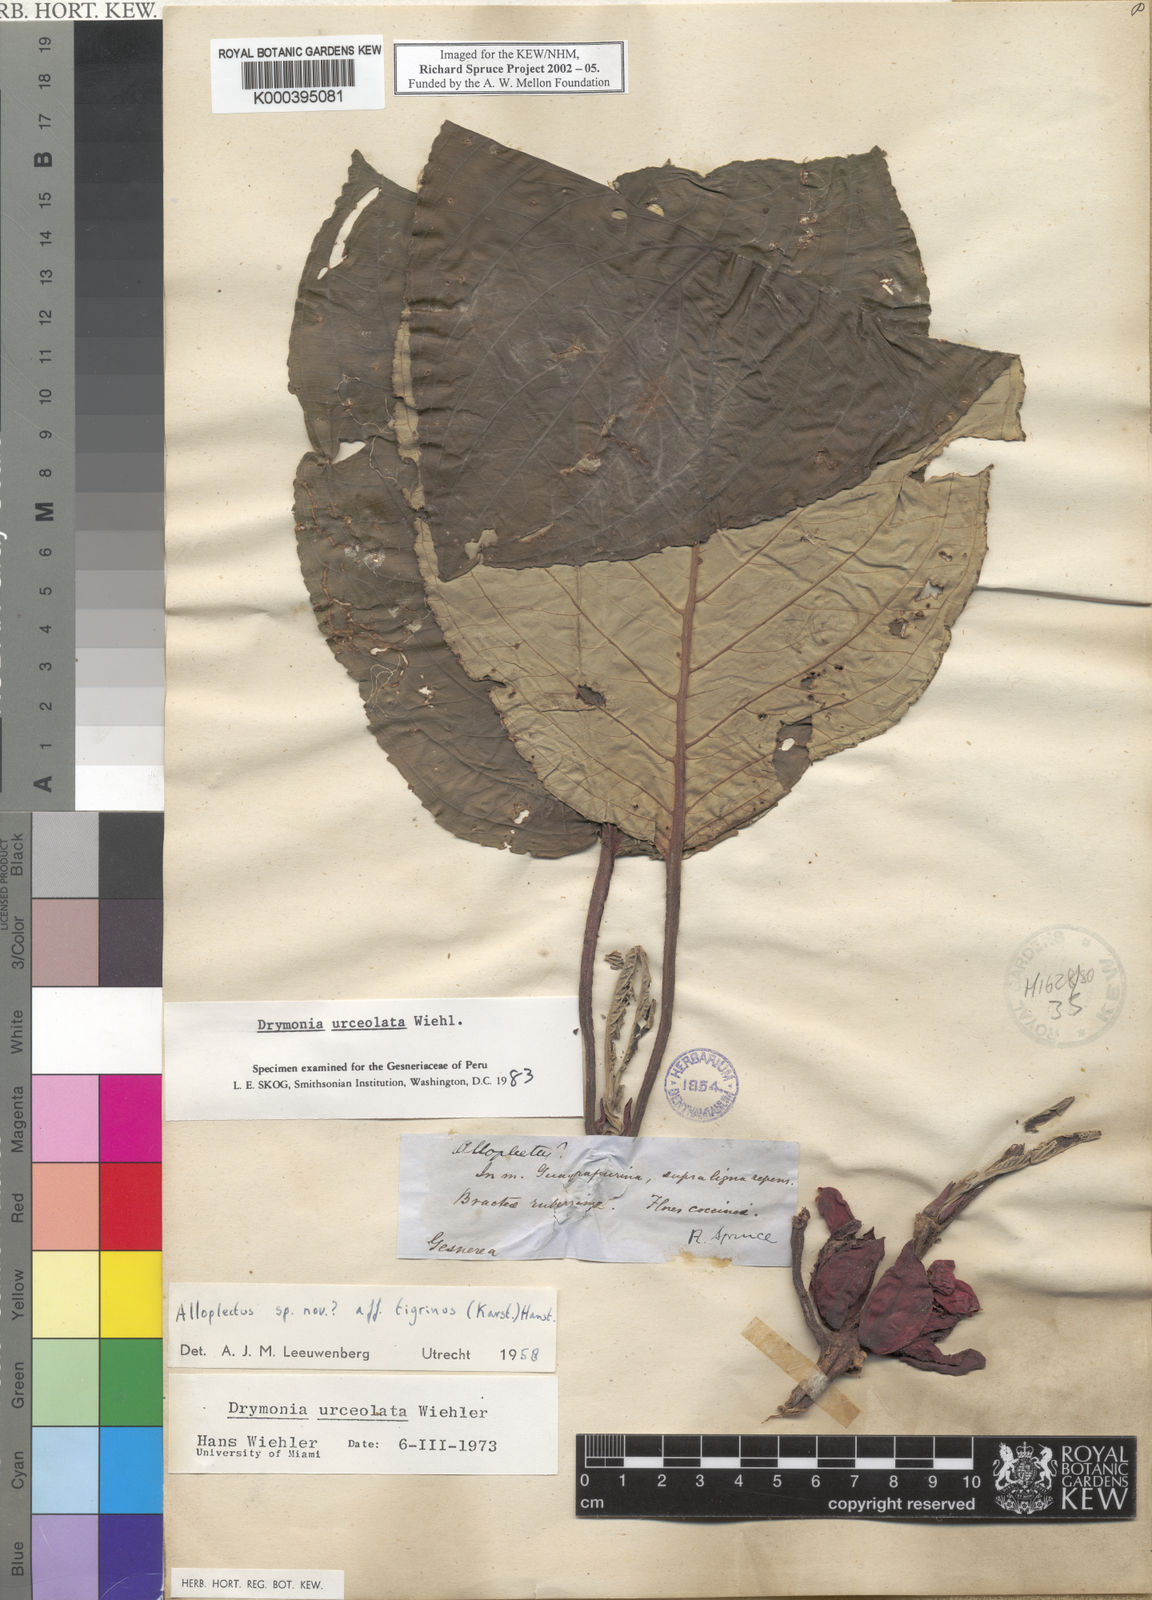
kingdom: Plantae
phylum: Tracheophyta
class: Magnoliopsida
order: Lamiales
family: Gesneriaceae
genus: Drymonia
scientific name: Drymonia urceolata
